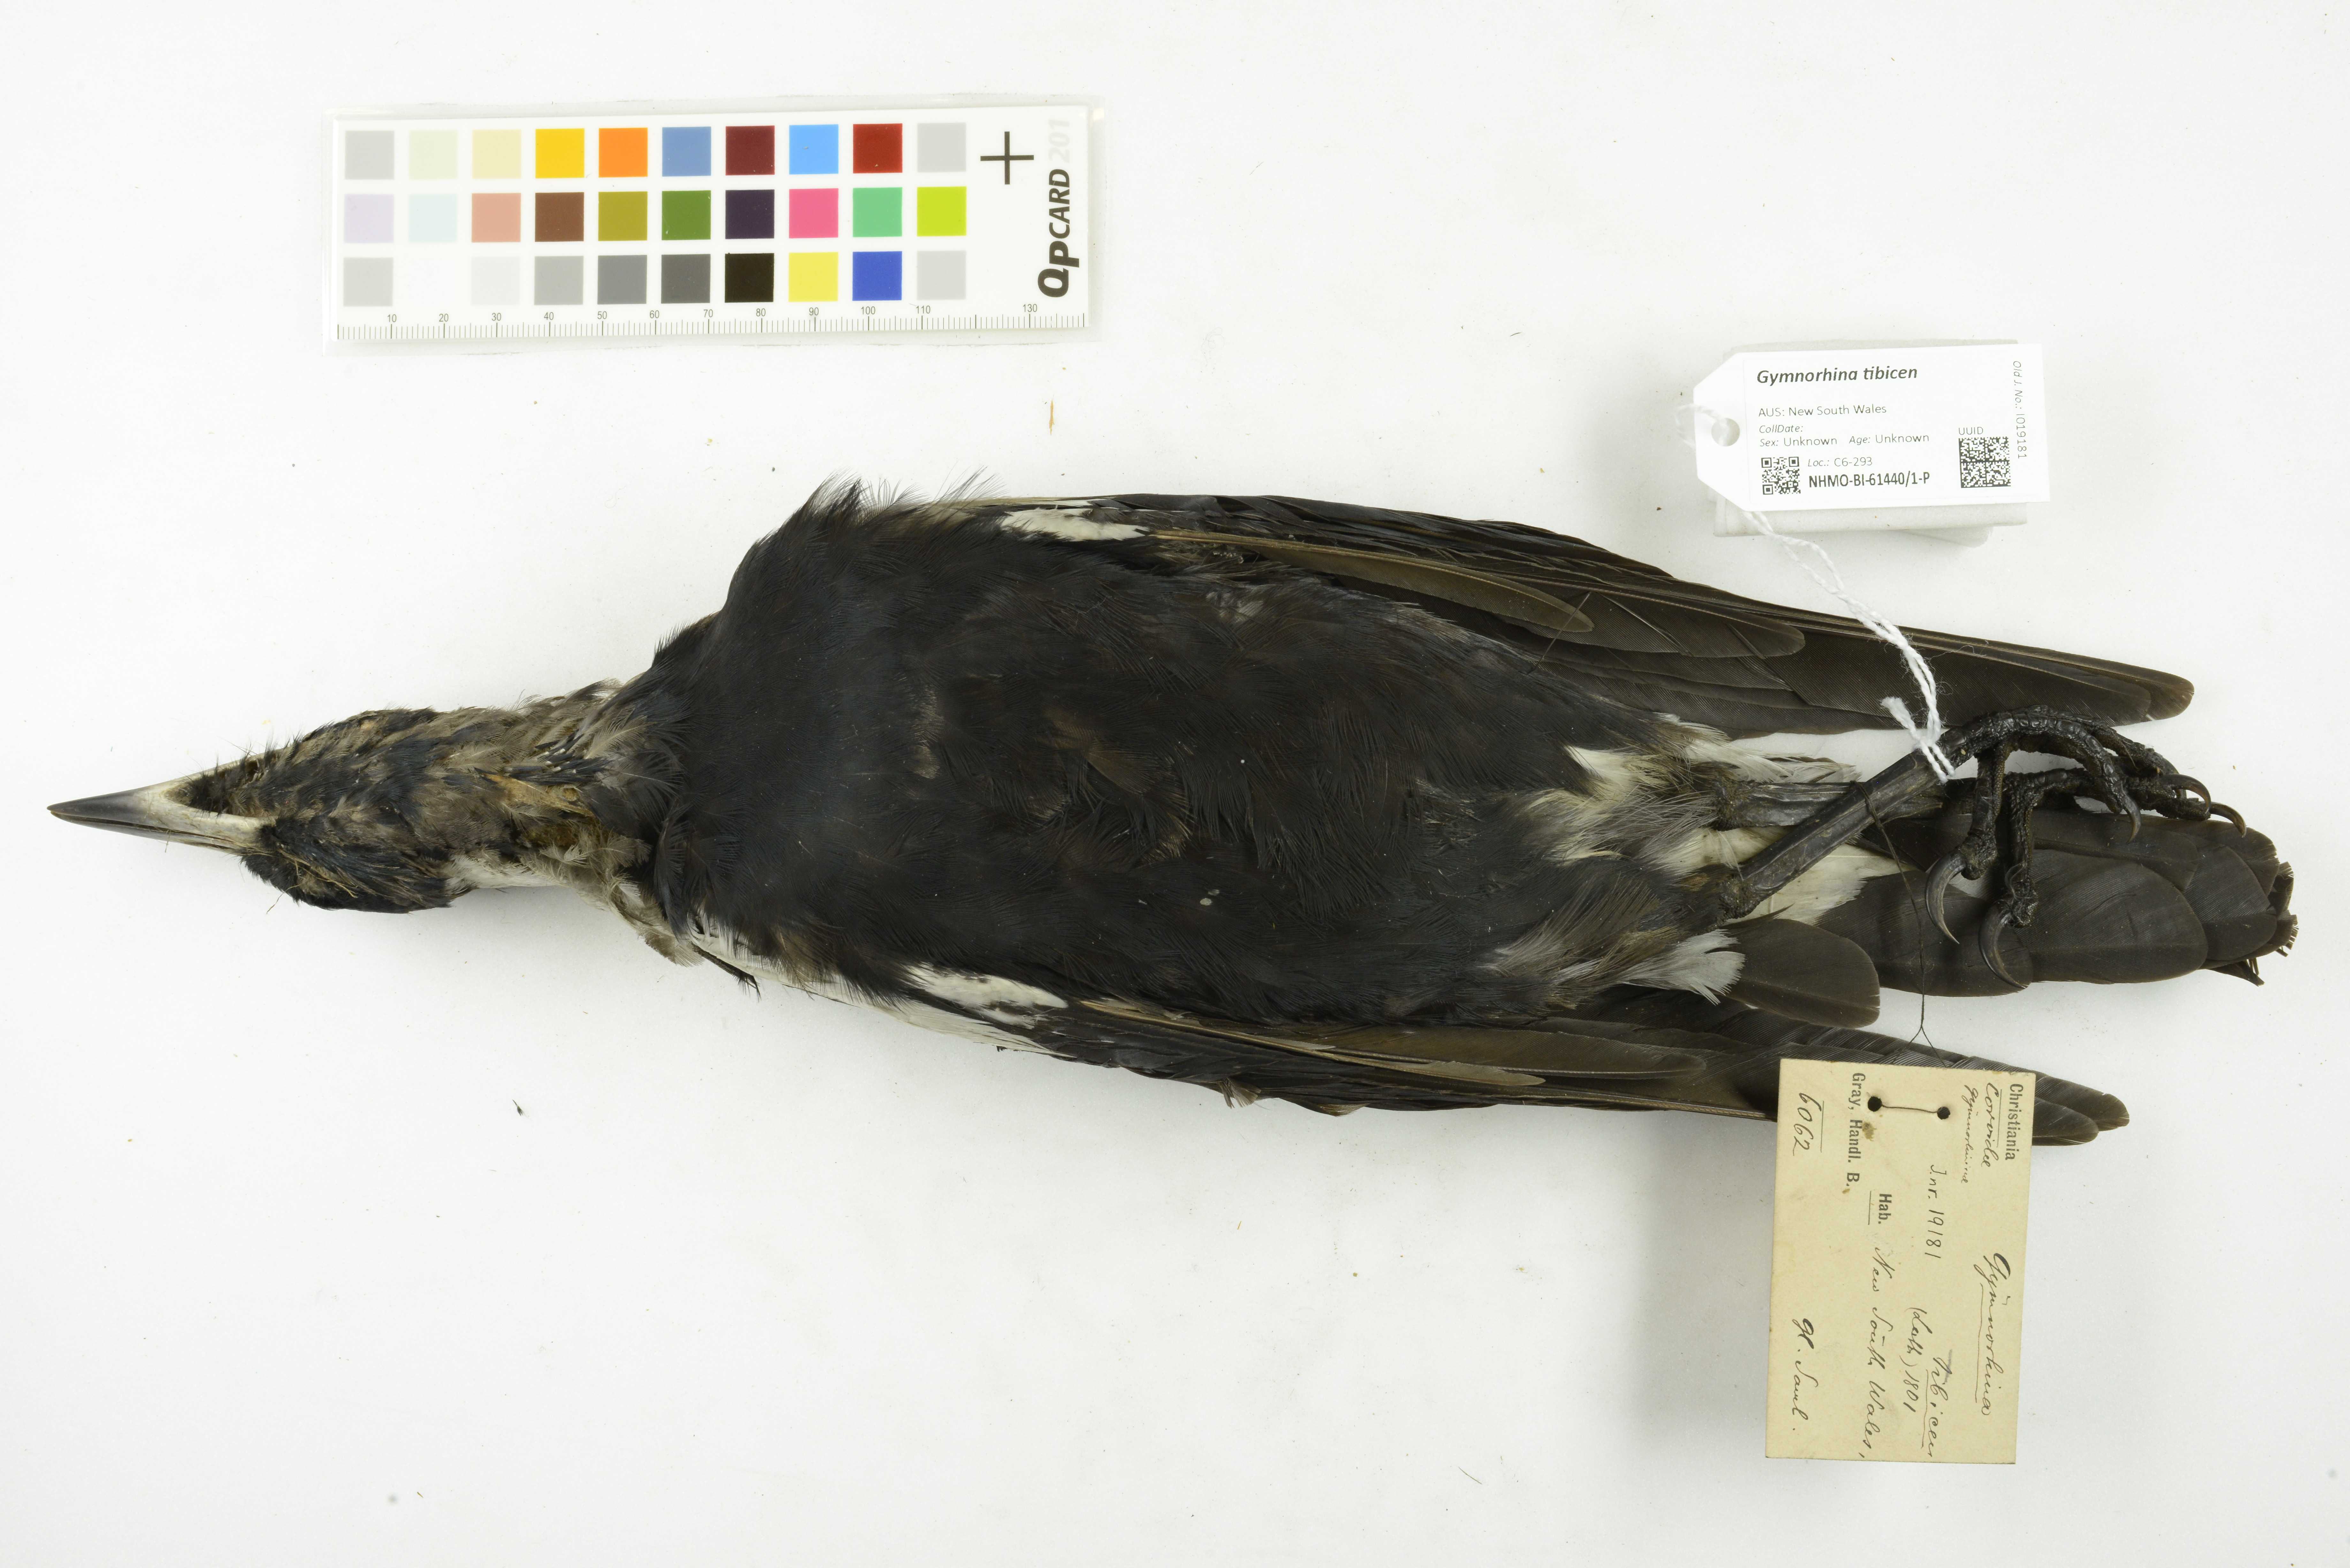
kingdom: Animalia
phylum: Chordata
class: Aves
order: Passeriformes
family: Cracticidae
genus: Gymnorhina
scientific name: Gymnorhina tibicen
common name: Australian magpie
